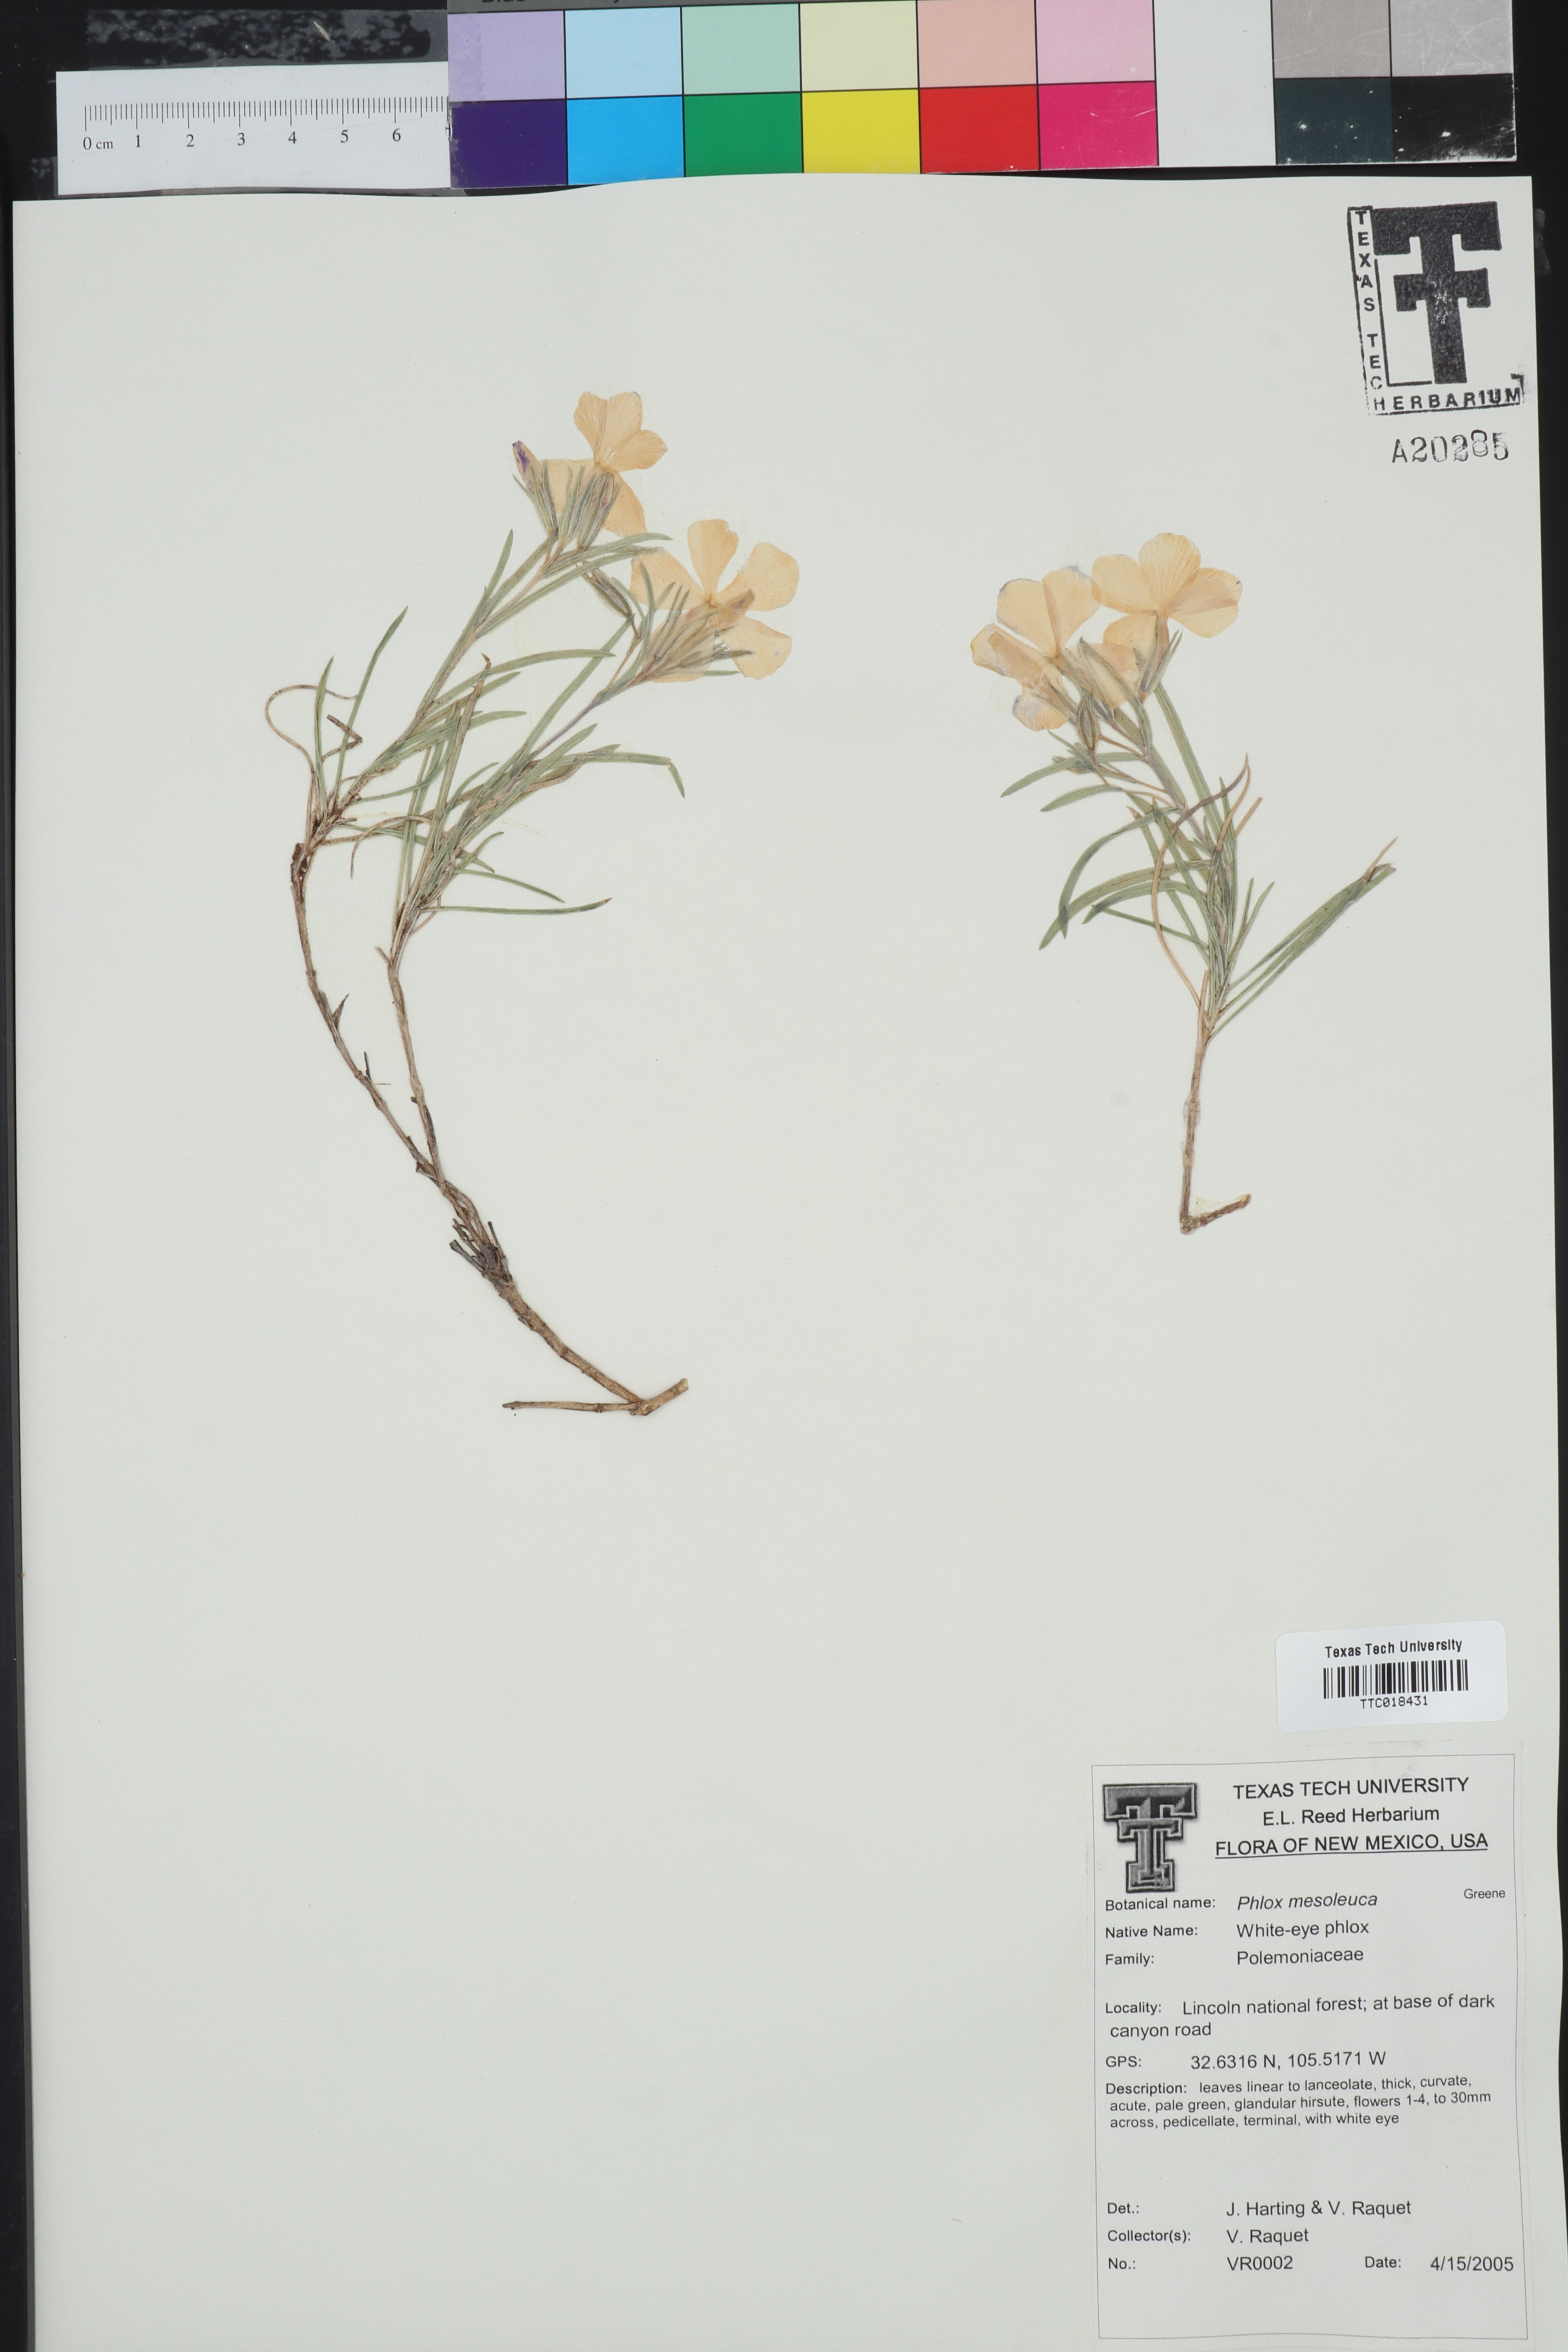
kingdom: Plantae
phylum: Tracheophyta
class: Magnoliopsida
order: Ericales
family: Polemoniaceae
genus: Phlox
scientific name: Phlox mesoleuca
